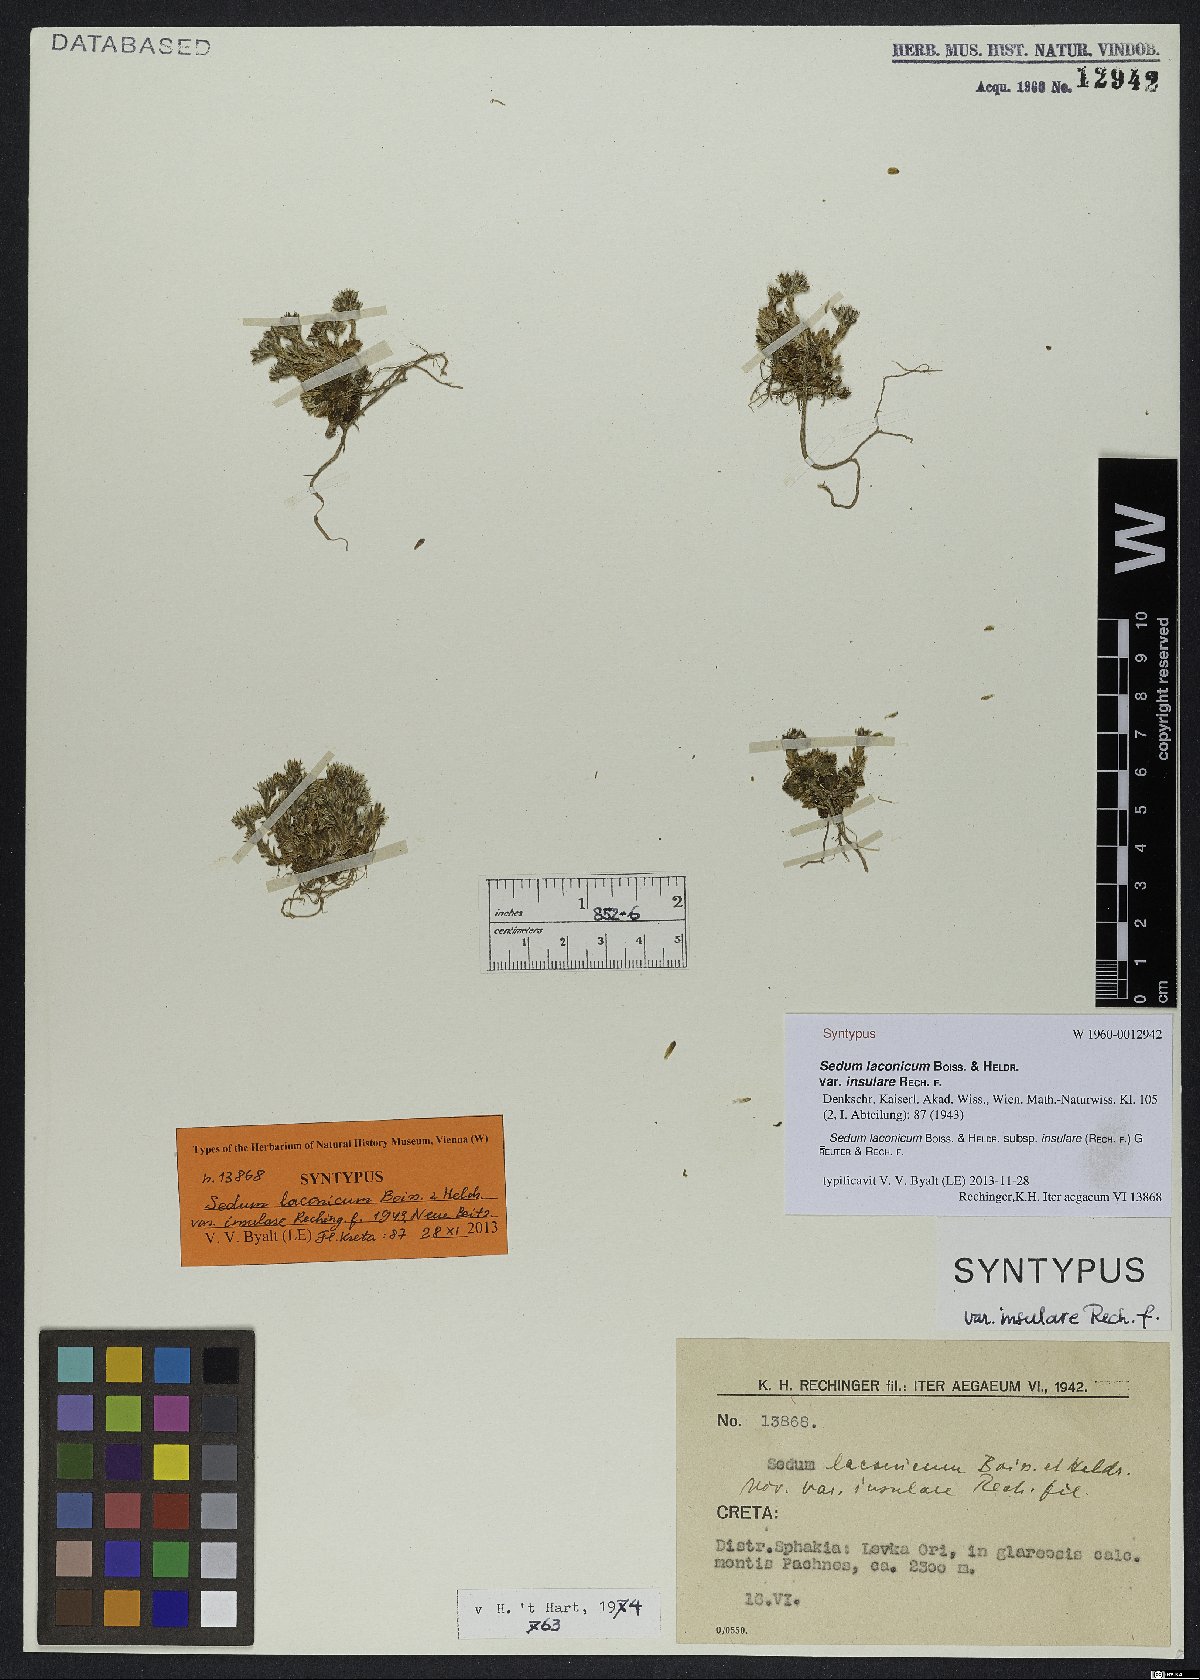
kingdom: Plantae
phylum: Tracheophyta
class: Magnoliopsida
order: Saxifragales
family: Crassulaceae
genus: Sedum
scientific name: Sedum laconicum
